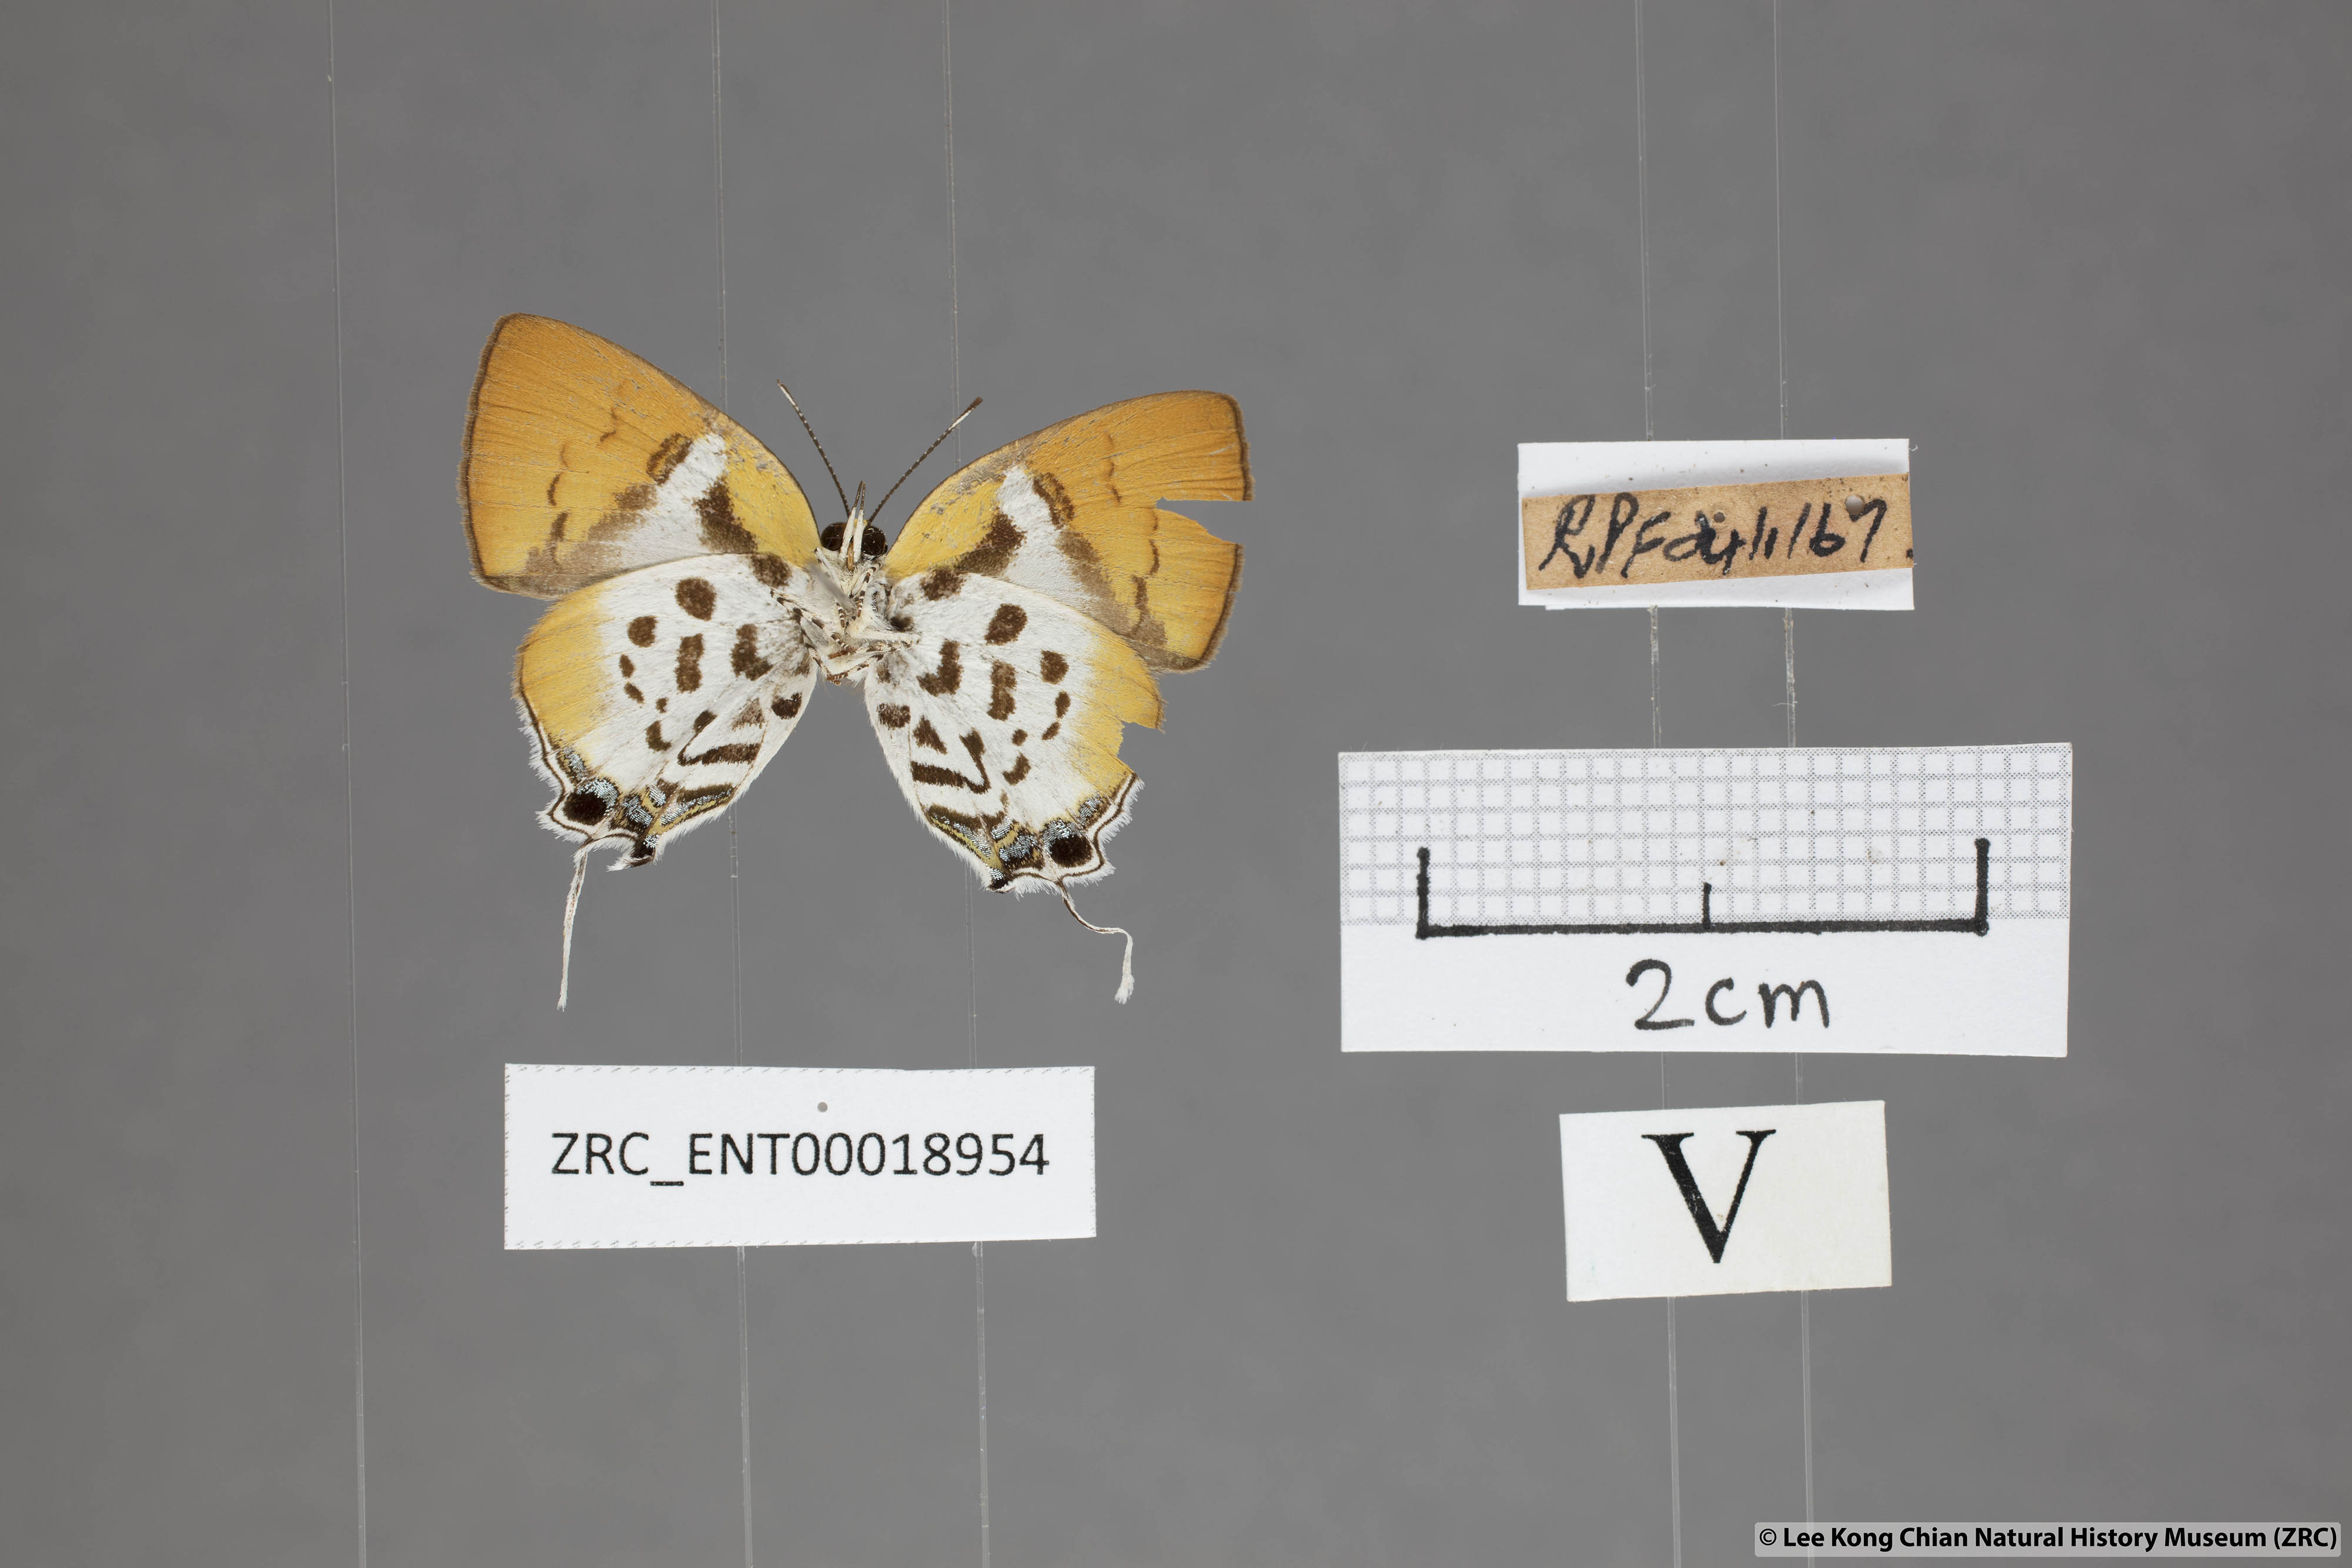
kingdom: Animalia
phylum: Arthropoda
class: Insecta
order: Lepidoptera
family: Lycaenidae
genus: Araotes
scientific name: Araotes lapithis
